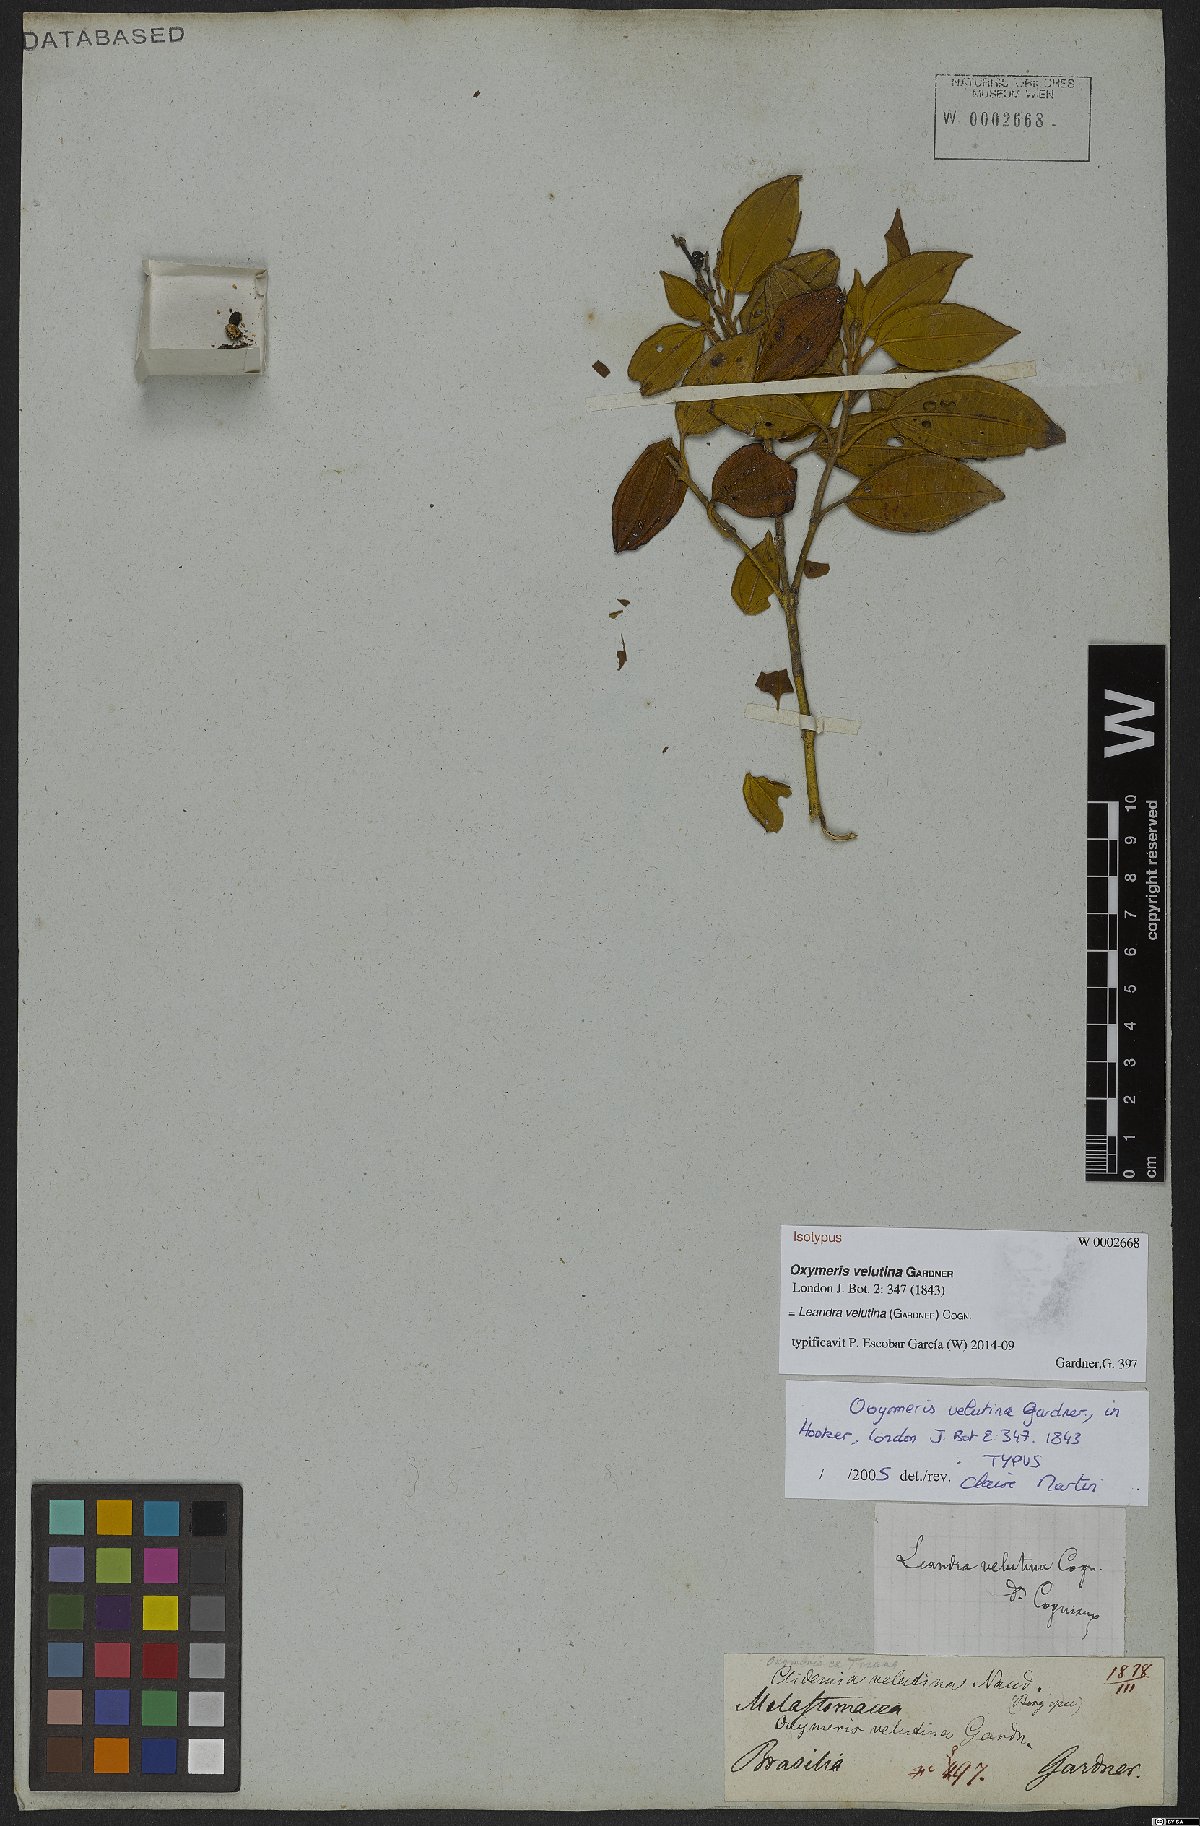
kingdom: Plantae
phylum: Tracheophyta
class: Magnoliopsida
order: Myrtales
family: Melastomataceae
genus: Miconia
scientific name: Miconia leavelutina
